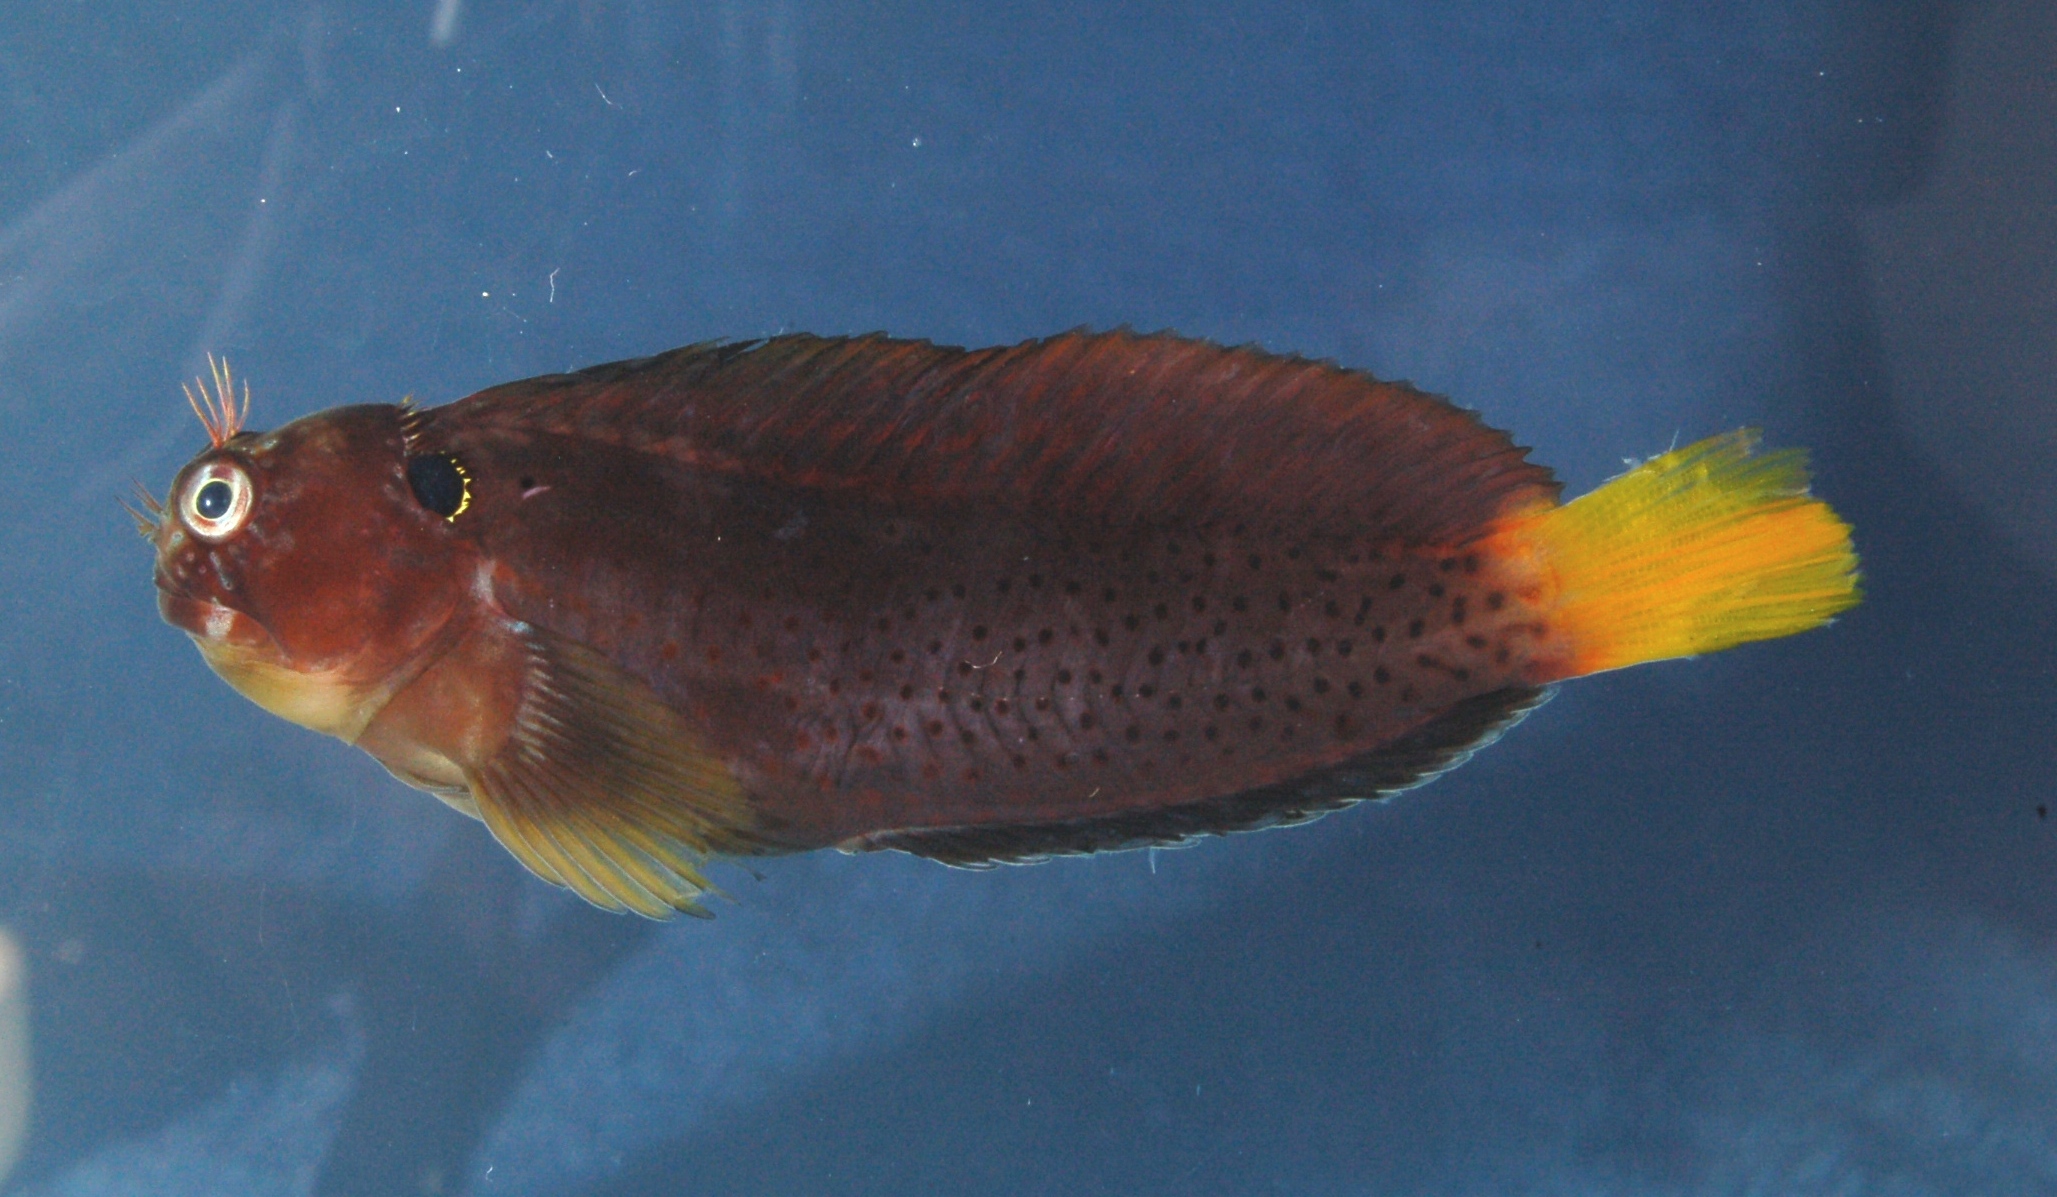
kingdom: Animalia
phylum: Chordata
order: Perciformes
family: Blenniidae
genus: Cirripectes
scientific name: Cirripectes heemstraorum
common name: Yellowtail blenny
